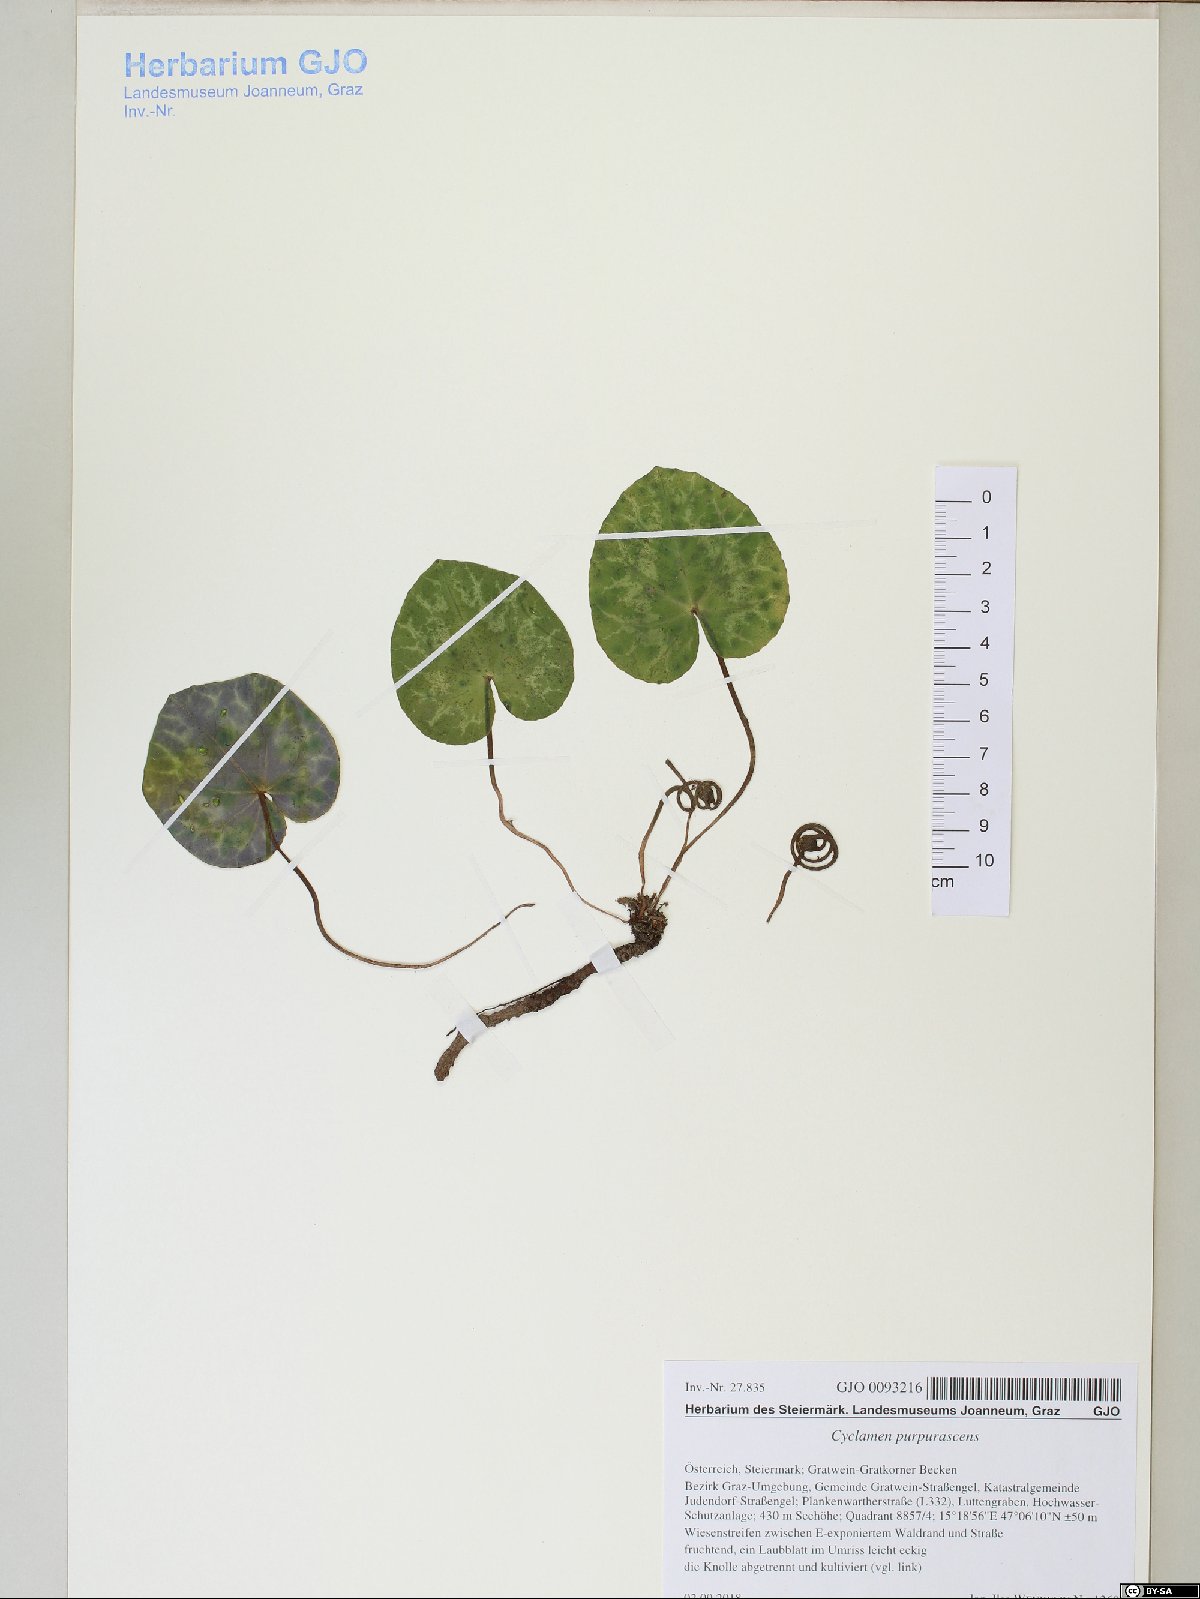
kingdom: Plantae
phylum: Tracheophyta
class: Magnoliopsida
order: Ericales
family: Primulaceae
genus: Cyclamen
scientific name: Cyclamen purpurascens
